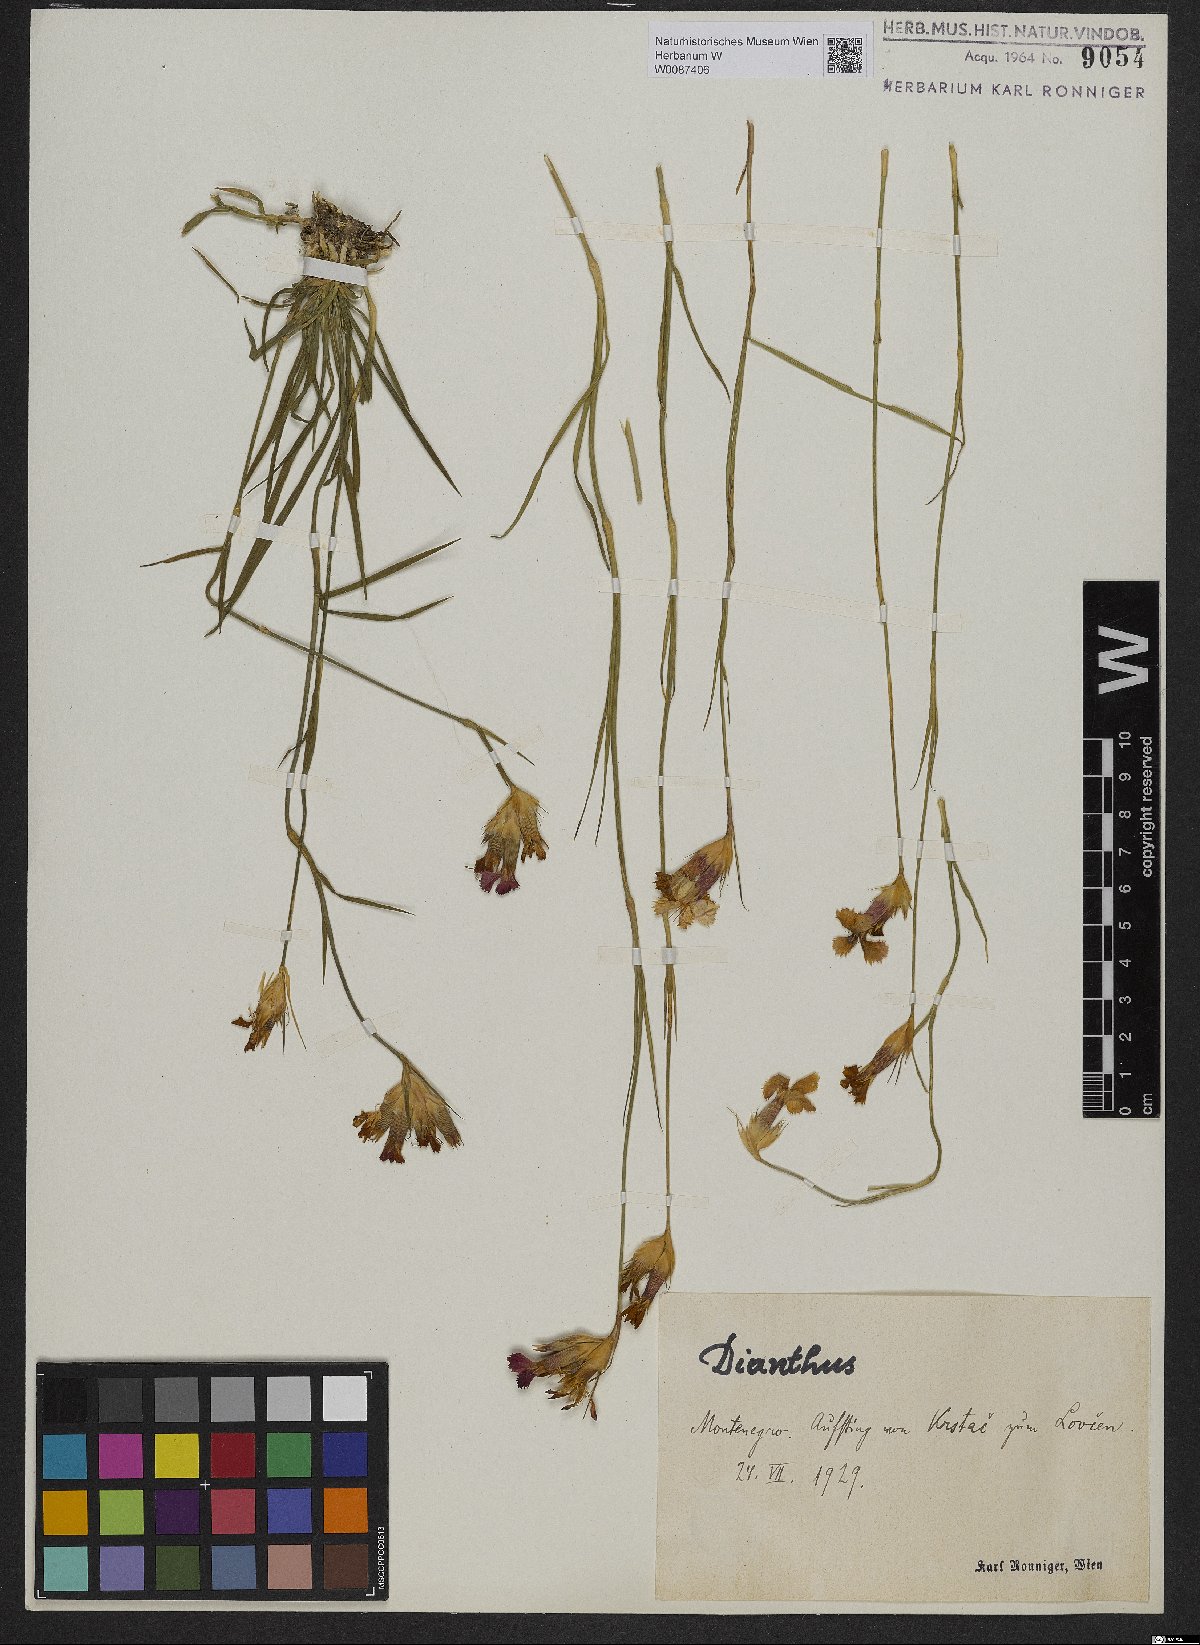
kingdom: Plantae
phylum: Tracheophyta
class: Magnoliopsida
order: Caryophyllales
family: Caryophyllaceae
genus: Dianthus
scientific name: Dianthus
